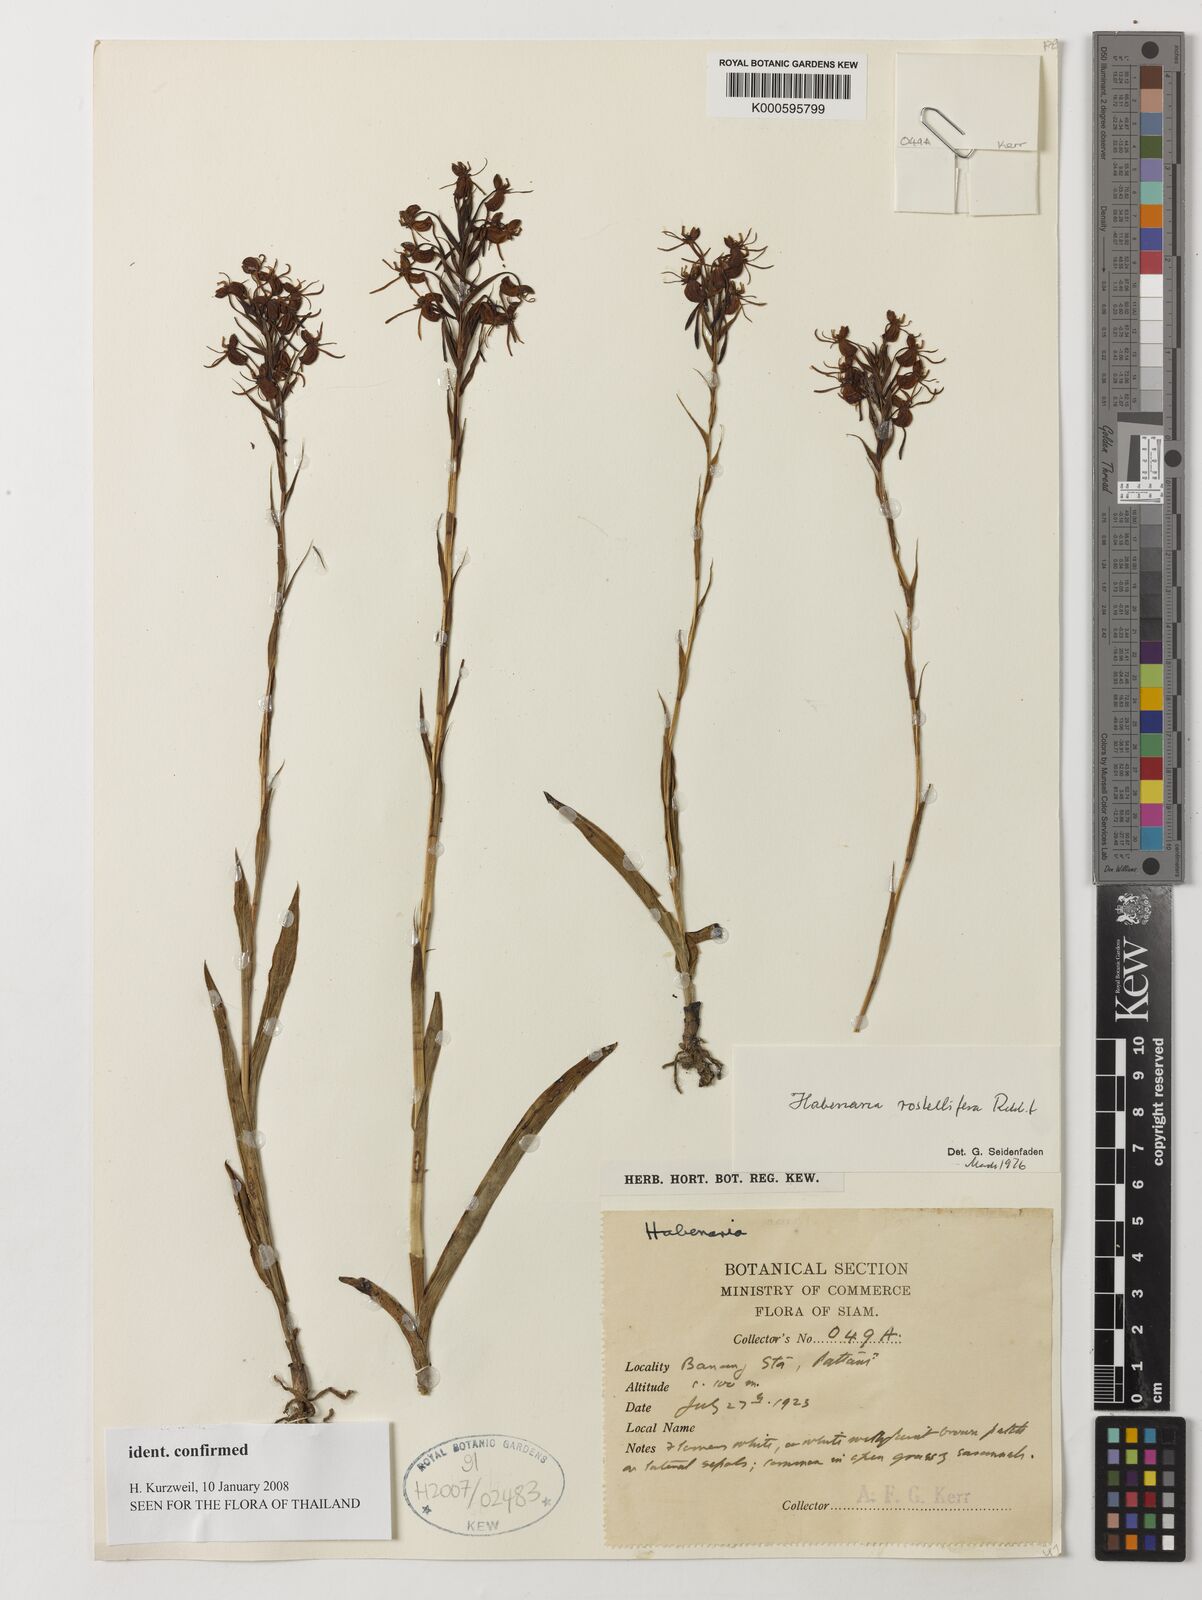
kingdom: Plantae
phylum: Tracheophyta
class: Liliopsida
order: Asparagales
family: Orchidaceae
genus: Habenaria
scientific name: Habenaria rostellifera
